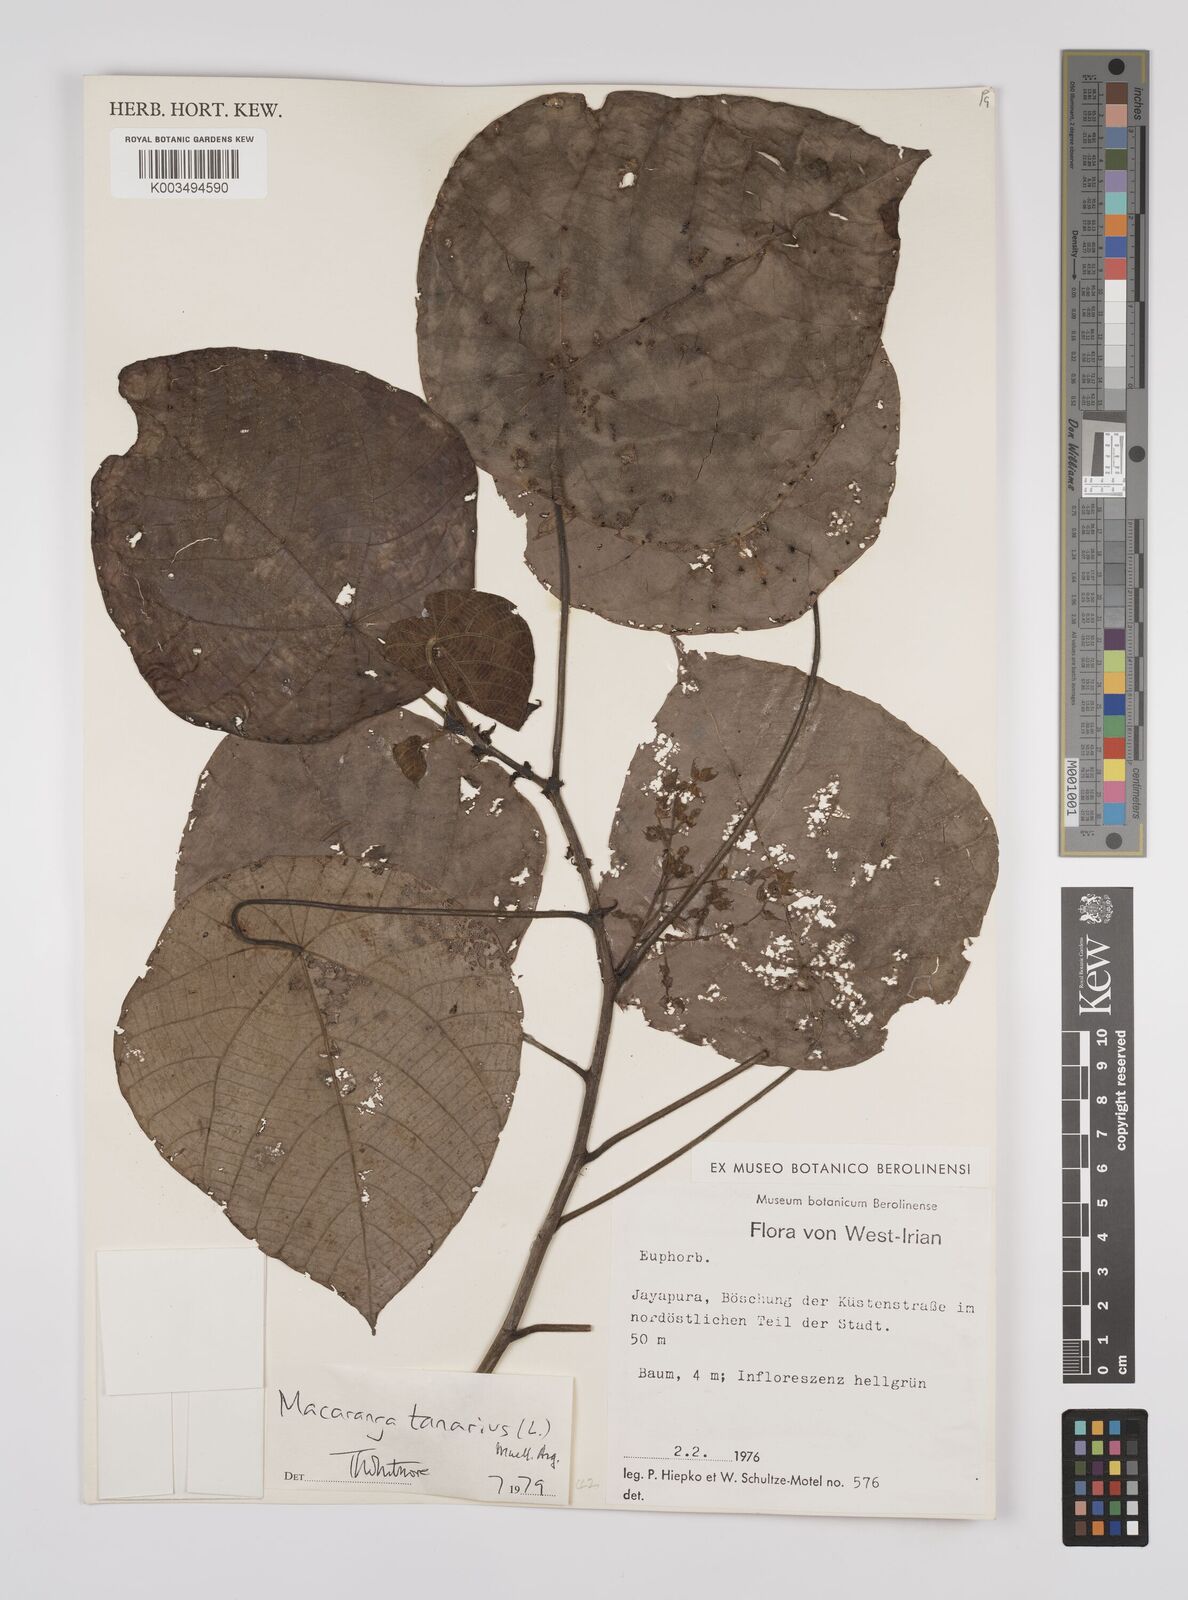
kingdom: Plantae
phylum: Tracheophyta
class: Magnoliopsida
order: Malpighiales
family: Euphorbiaceae
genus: Macaranga
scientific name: Macaranga tanarius
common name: Parasol leaf tree
